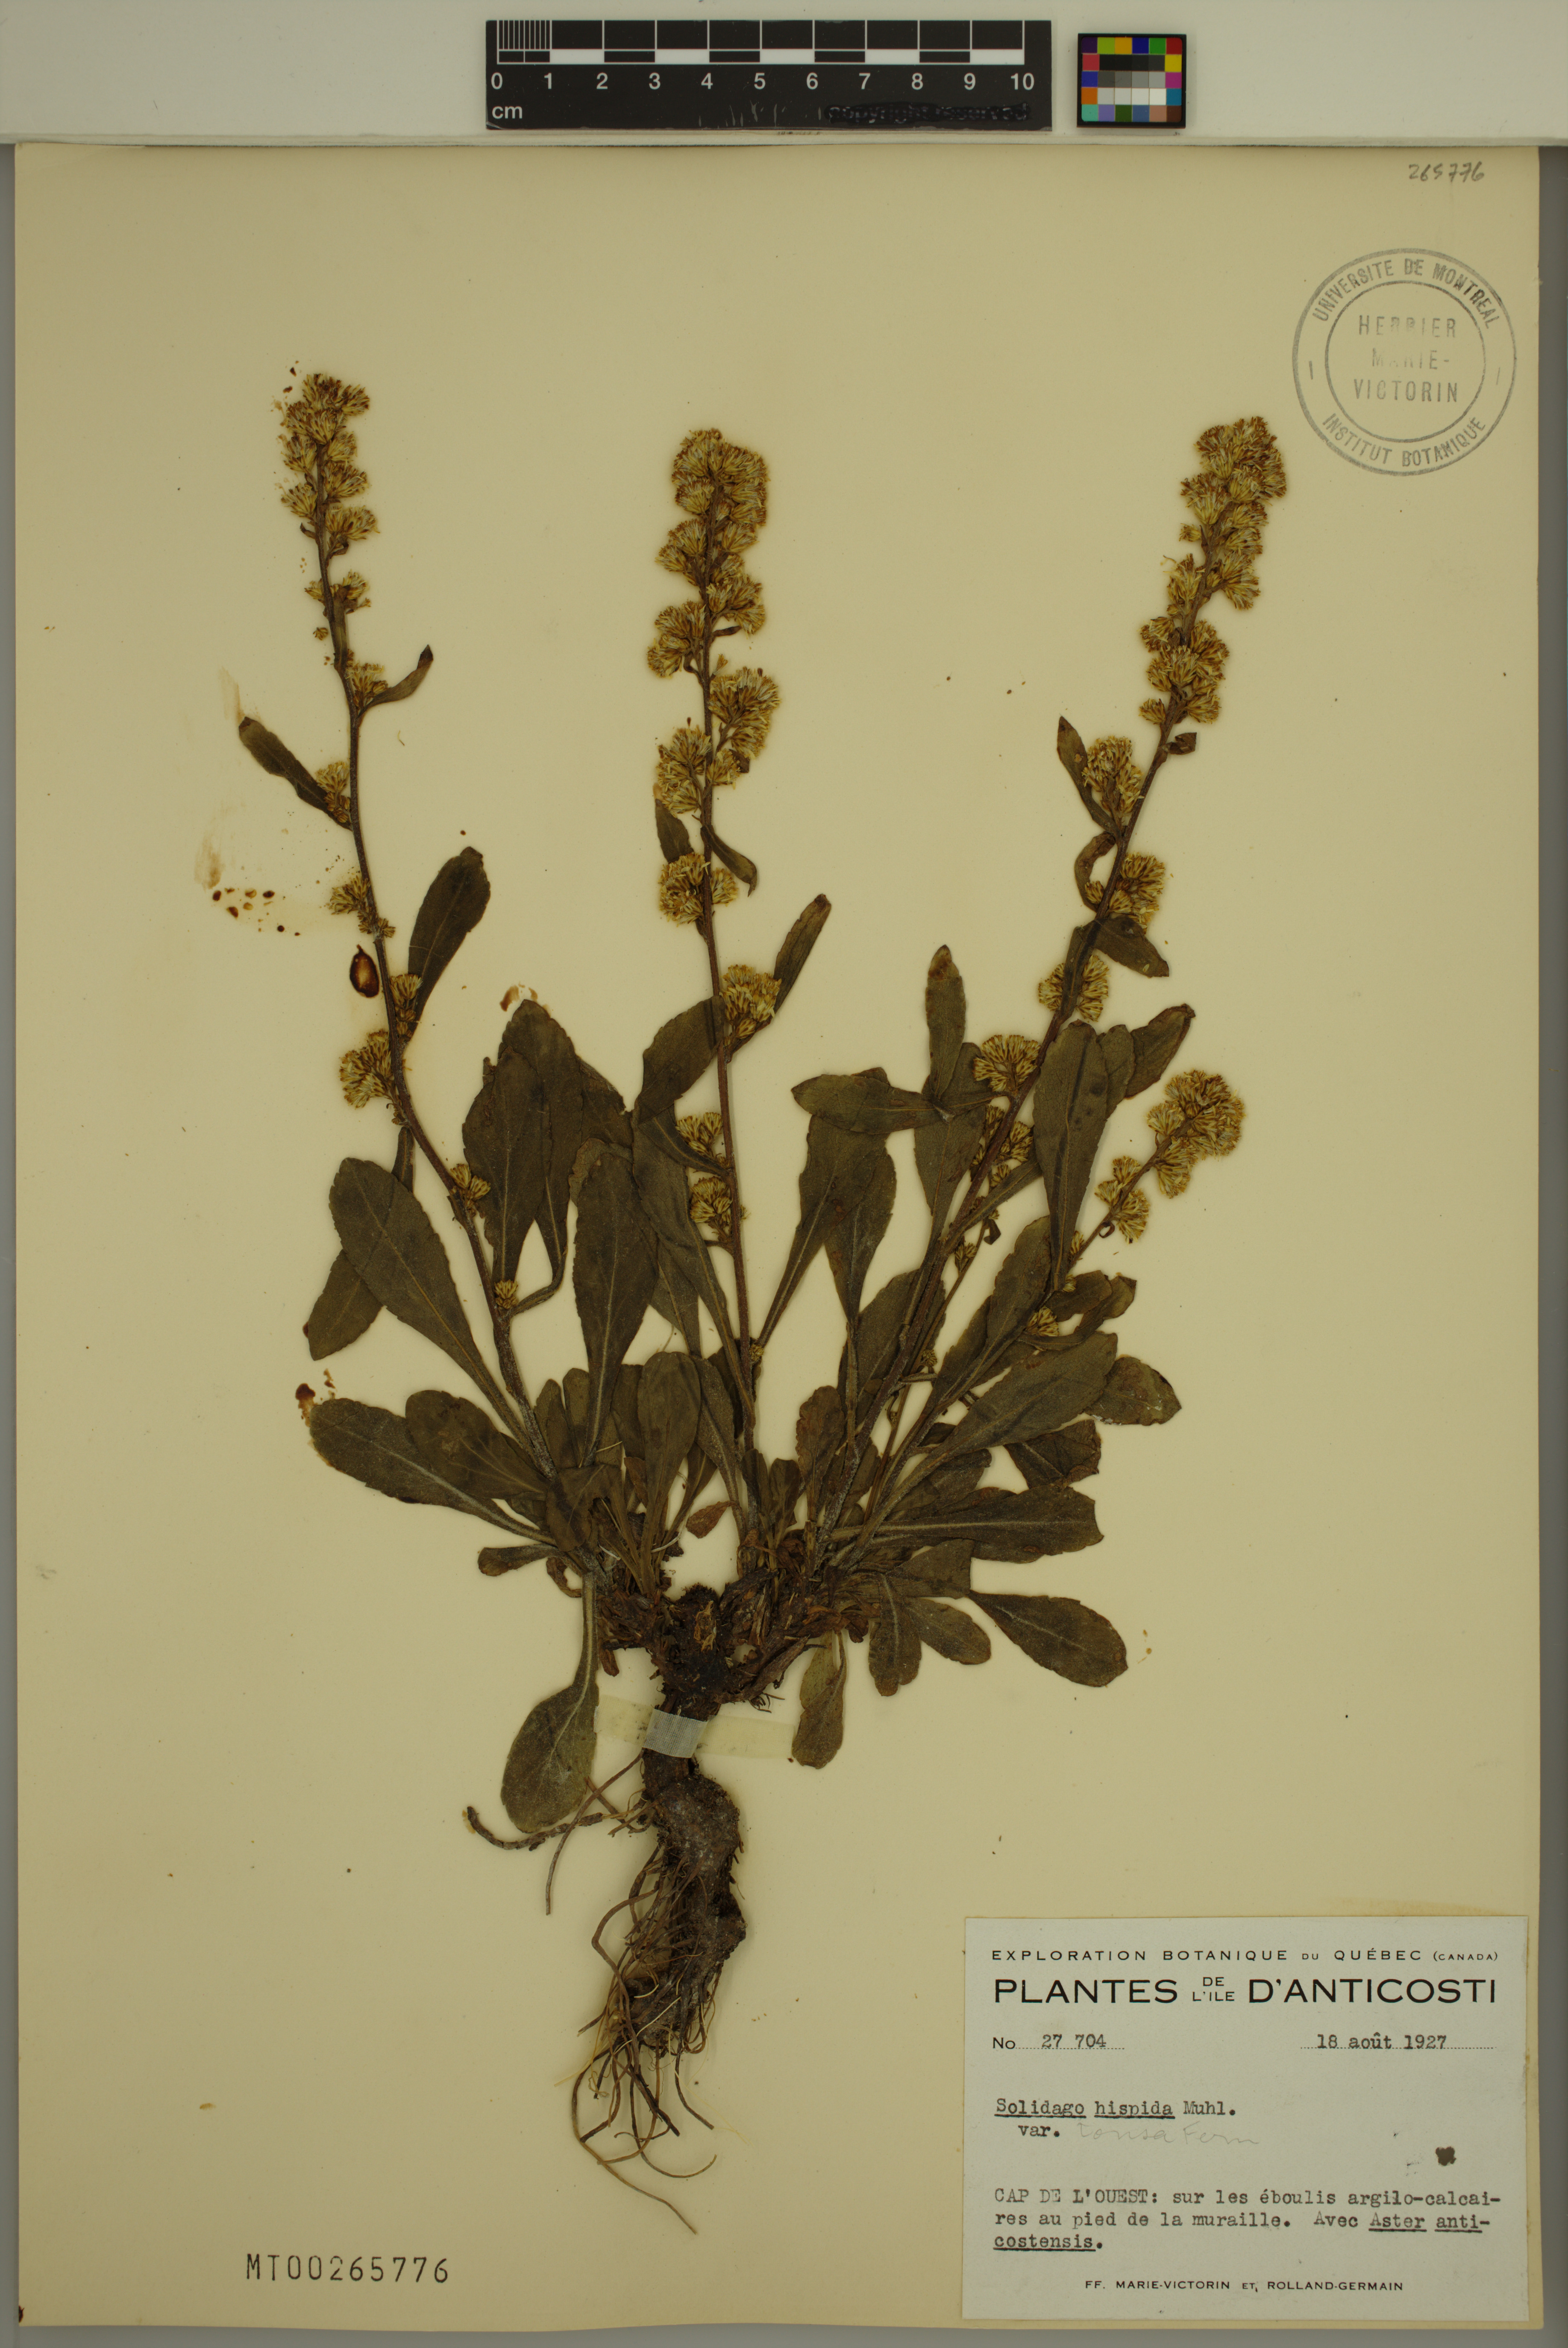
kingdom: Plantae
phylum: Tracheophyta
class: Magnoliopsida
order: Asterales
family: Asteraceae
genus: Solidago
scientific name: Solidago hispida
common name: Hairy goldenrod
